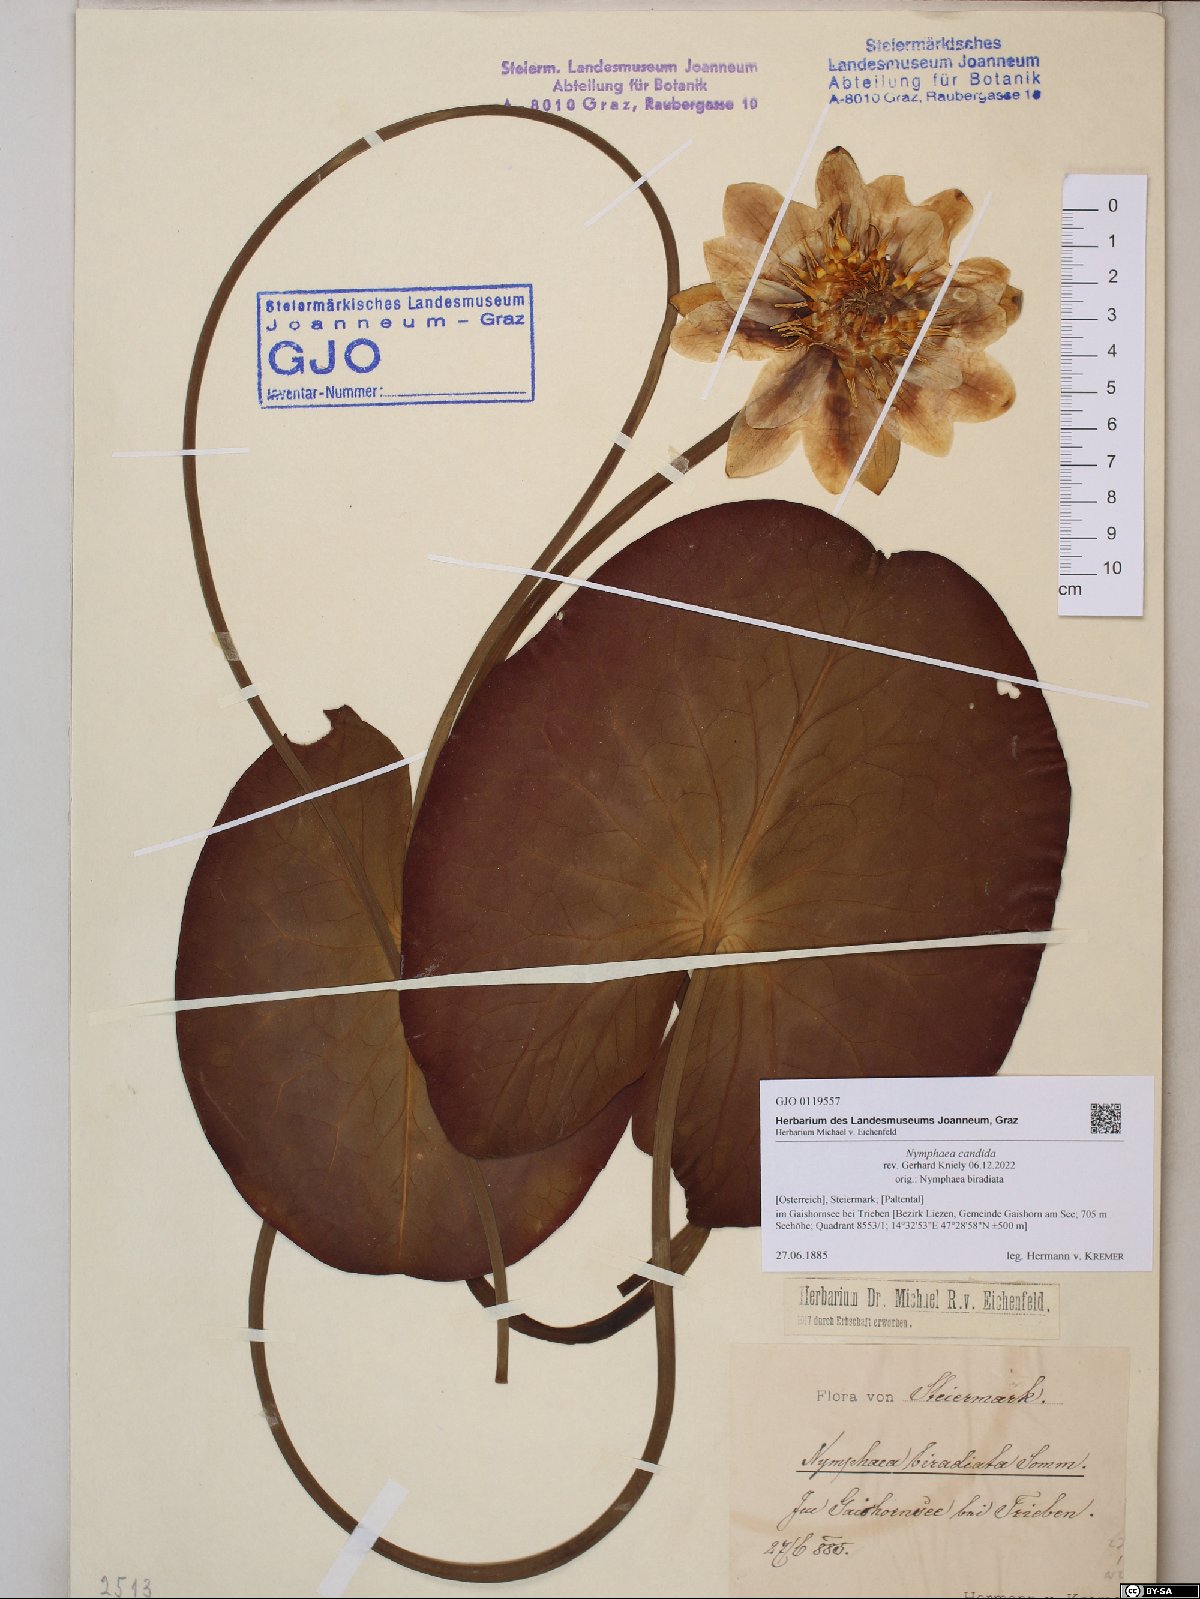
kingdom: Plantae
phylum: Tracheophyta
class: Magnoliopsida
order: Nymphaeales
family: Nymphaeaceae
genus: Nymphaea
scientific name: Nymphaea candida
